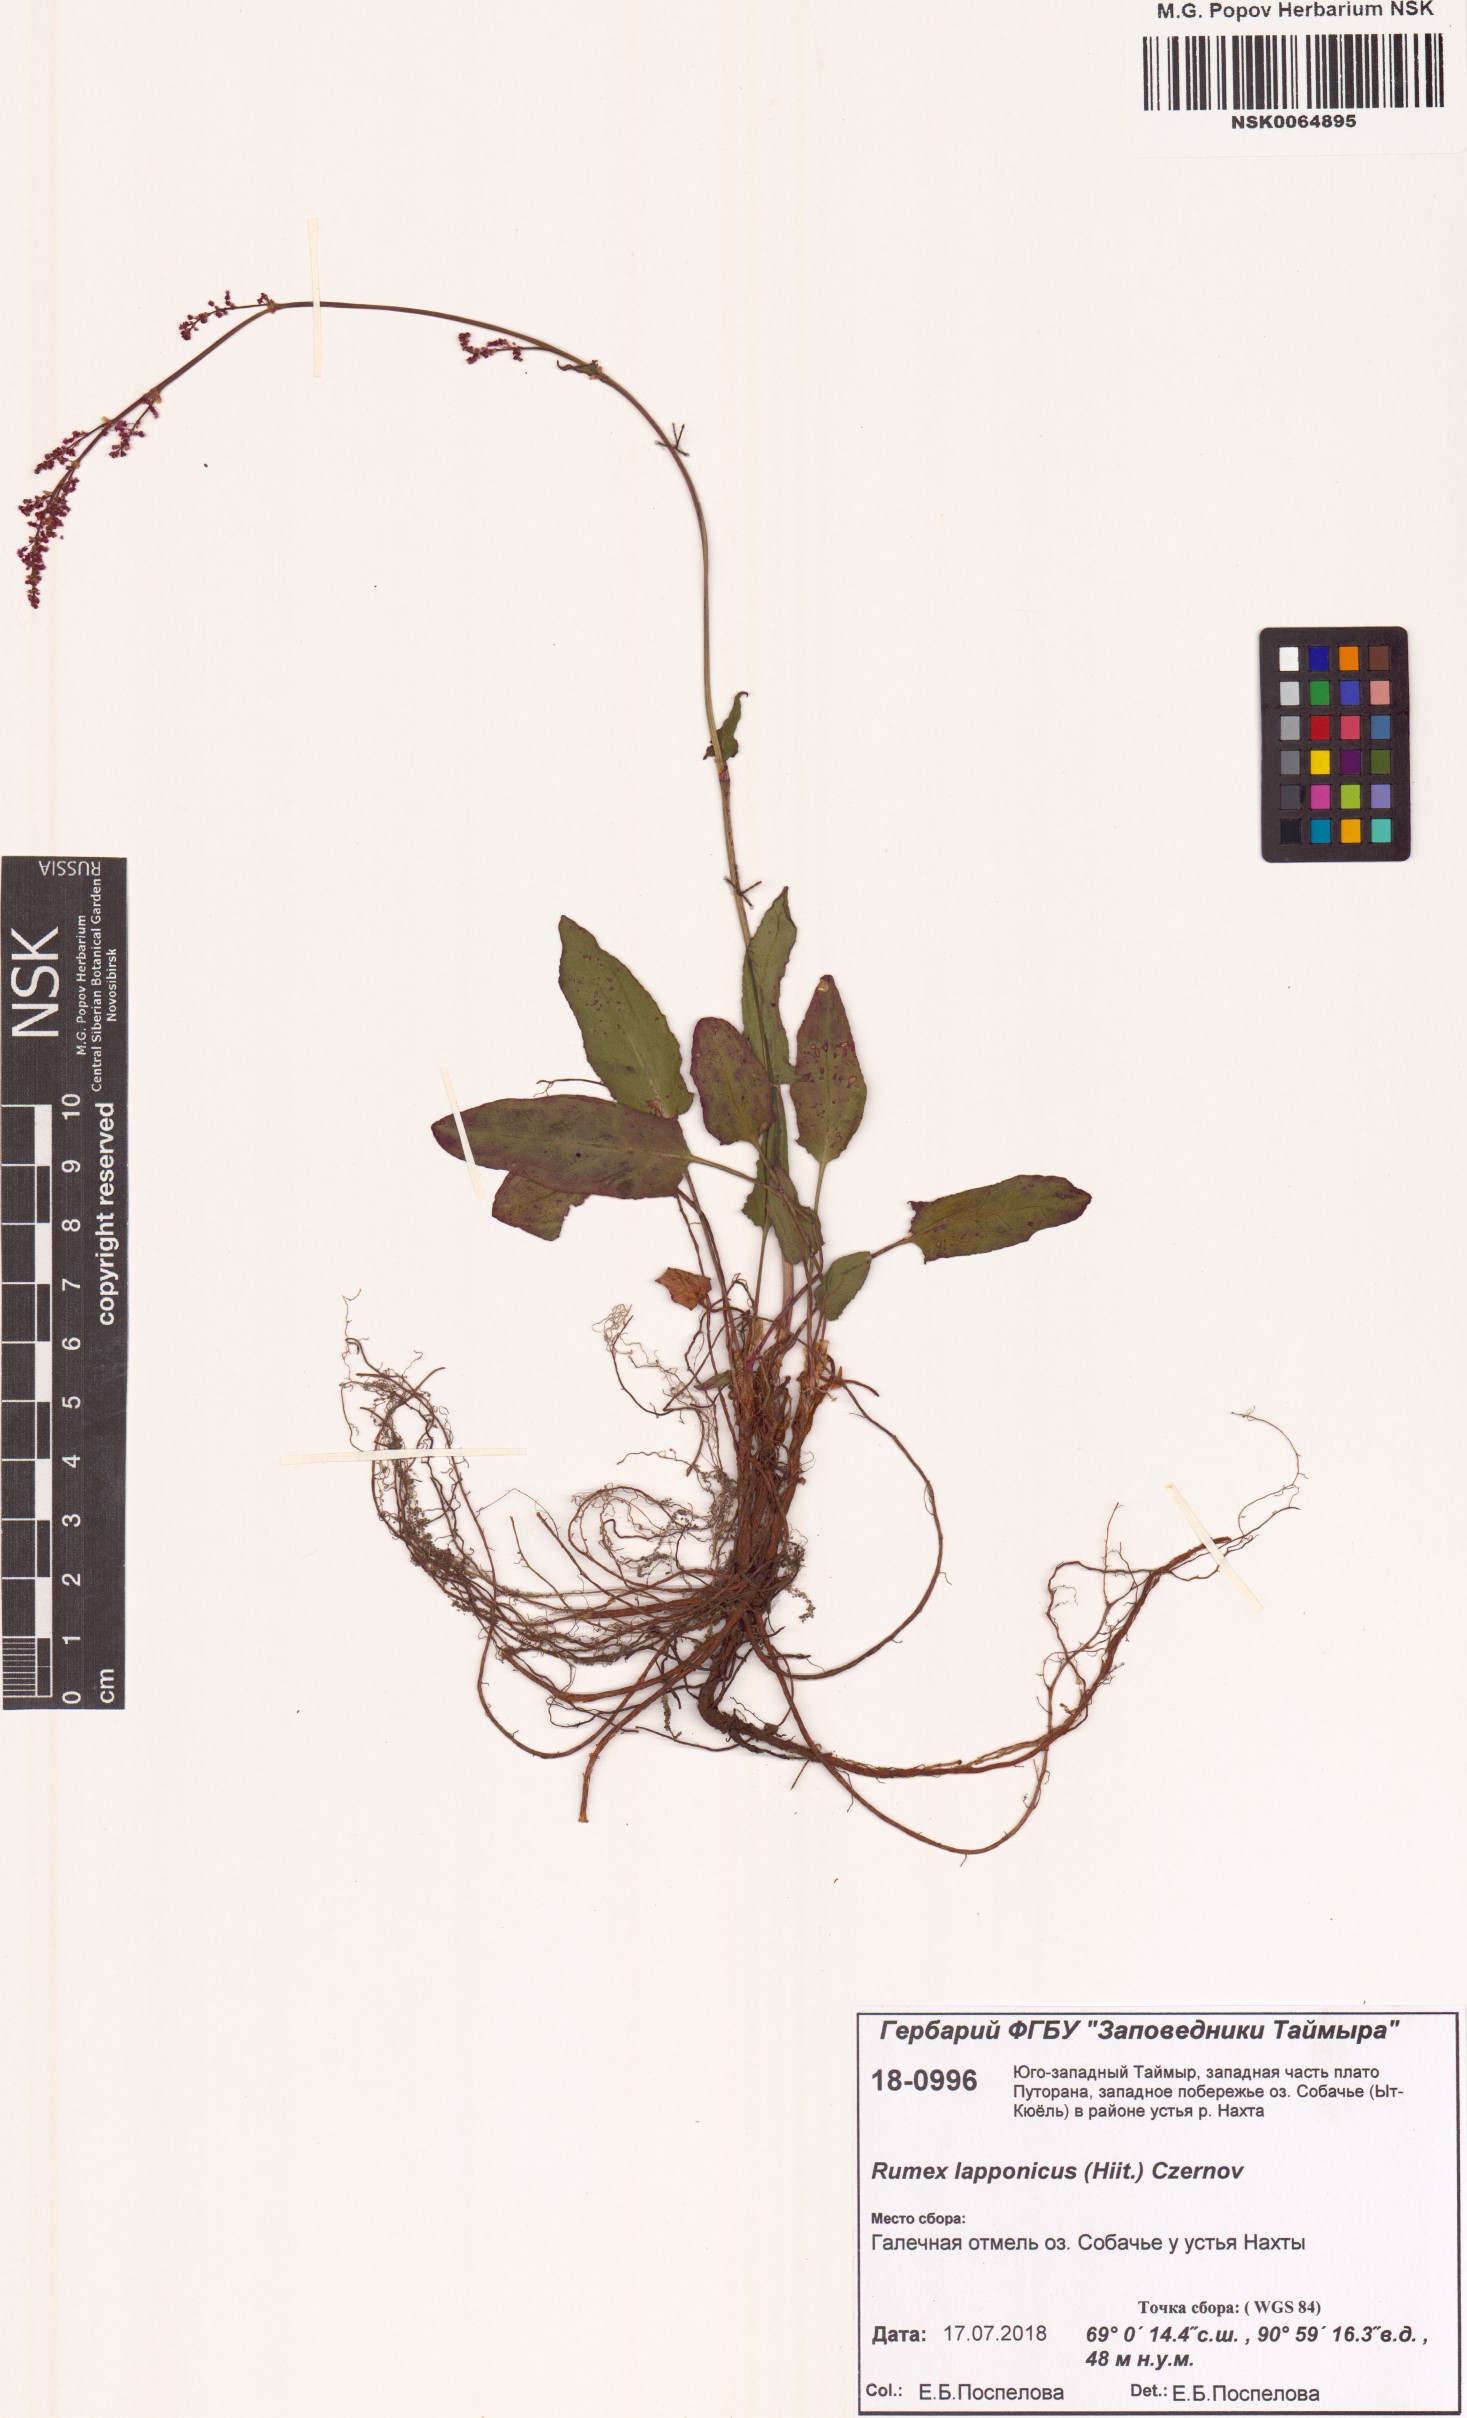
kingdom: Plantae
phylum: Tracheophyta
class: Magnoliopsida
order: Caryophyllales
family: Polygonaceae
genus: Rumex
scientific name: Rumex lapponicus
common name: Lapland mountain sorrel
